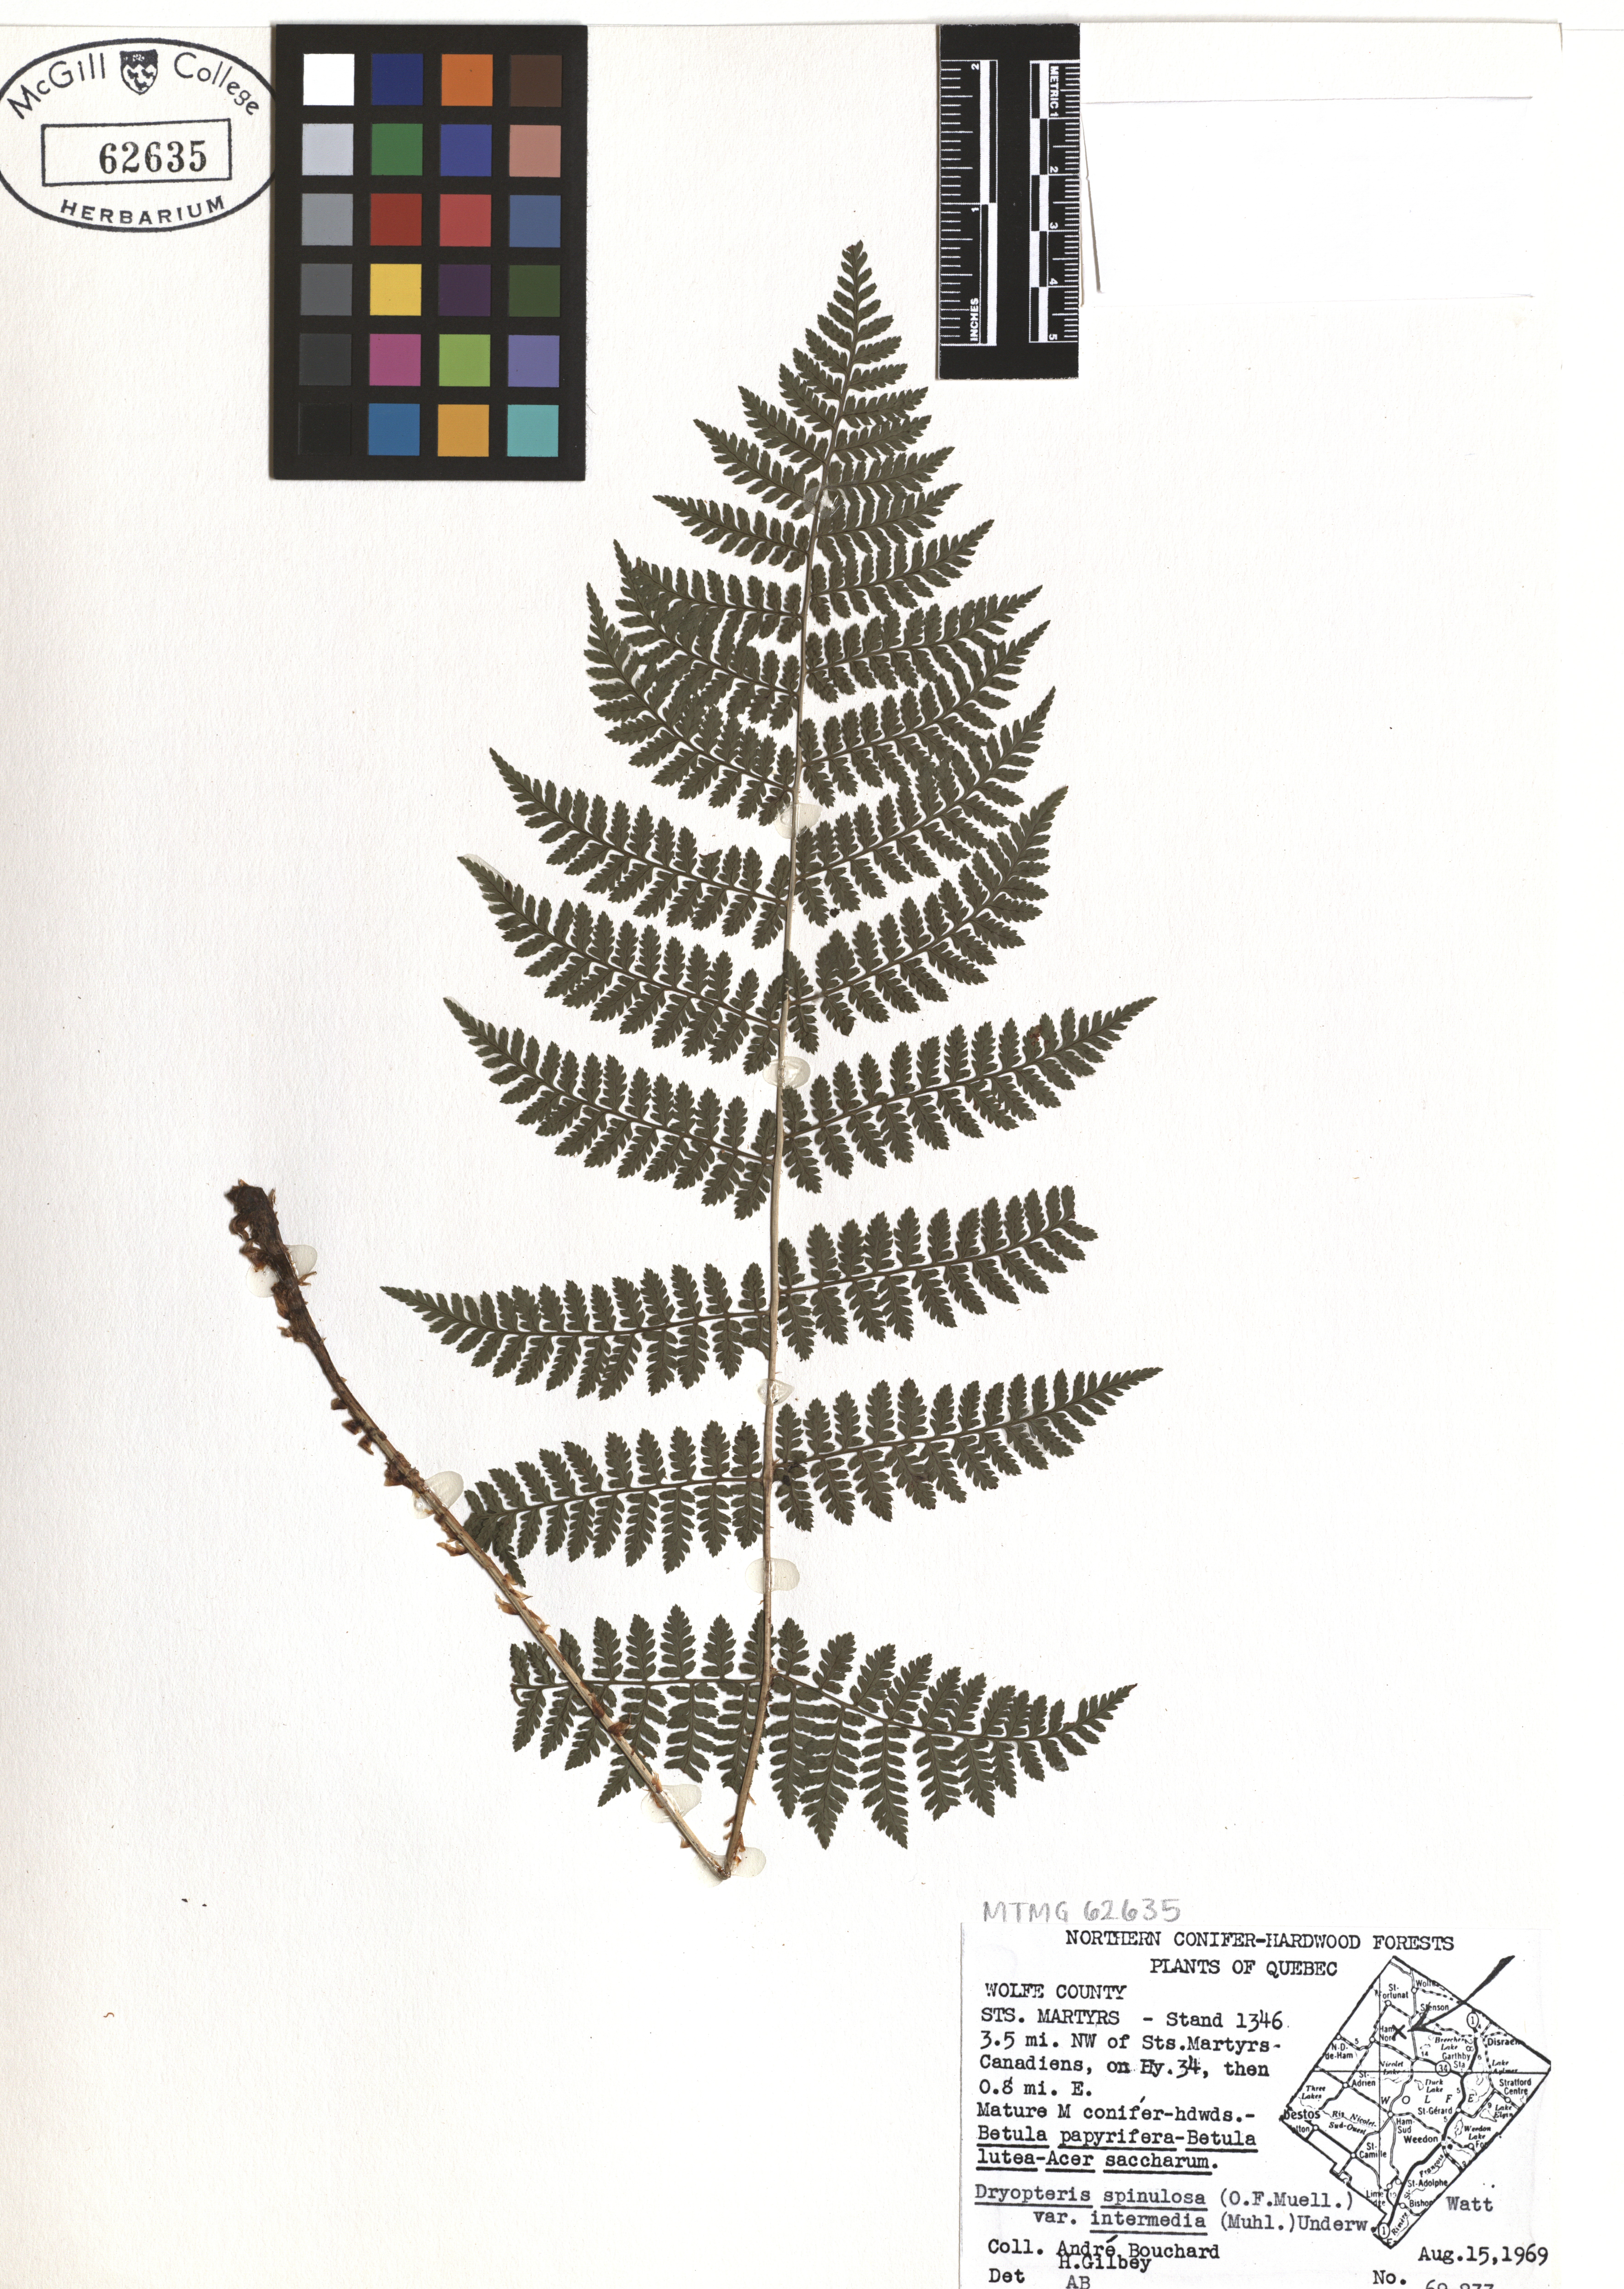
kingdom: Plantae
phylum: Tracheophyta
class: Polypodiopsida
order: Polypodiales
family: Dryopteridaceae
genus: Dryopteris
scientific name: Dryopteris intermedia
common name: Evergreen wood fern
